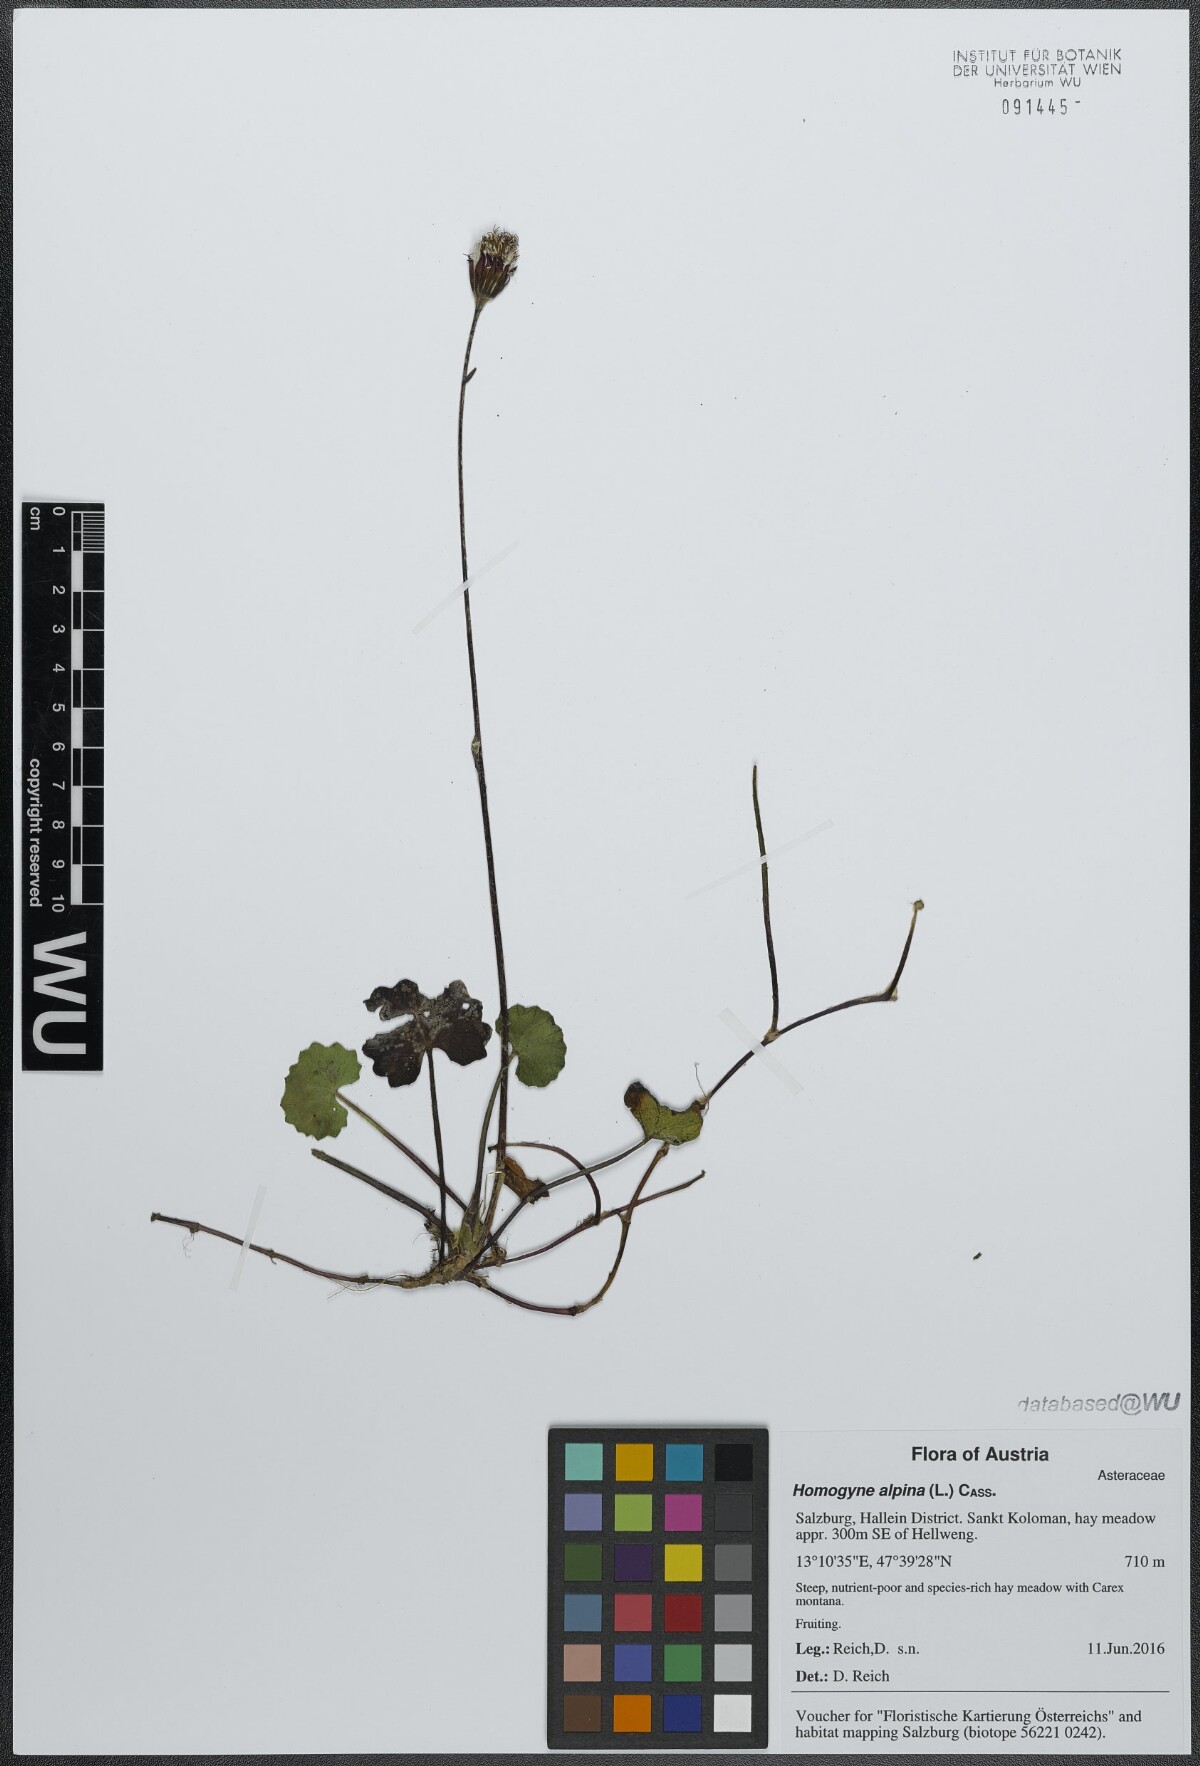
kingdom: Plantae
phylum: Tracheophyta
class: Magnoliopsida
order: Asterales
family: Asteraceae
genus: Homogyne
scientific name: Homogyne alpina
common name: Purple colt's-foot
